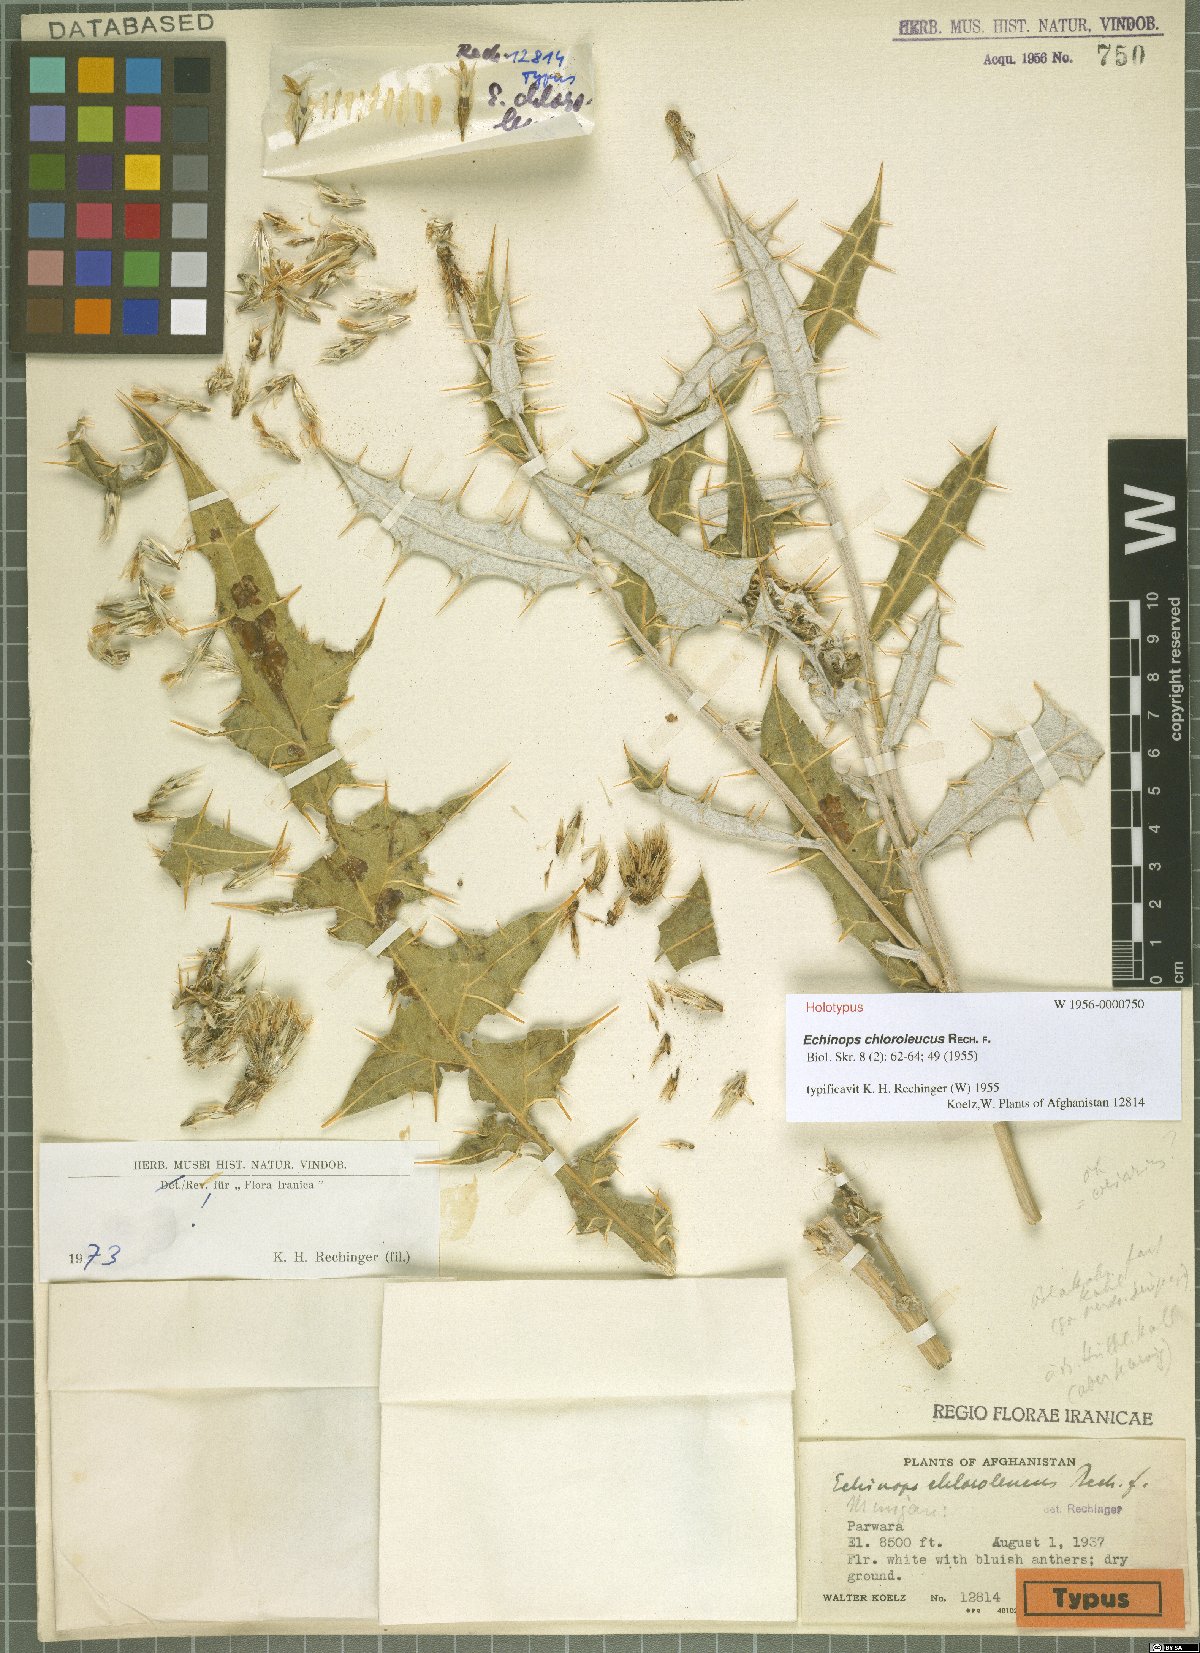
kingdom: Plantae
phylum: Tracheophyta
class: Magnoliopsida
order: Asterales
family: Asteraceae
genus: Echinops
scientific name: Echinops chloroleucus
